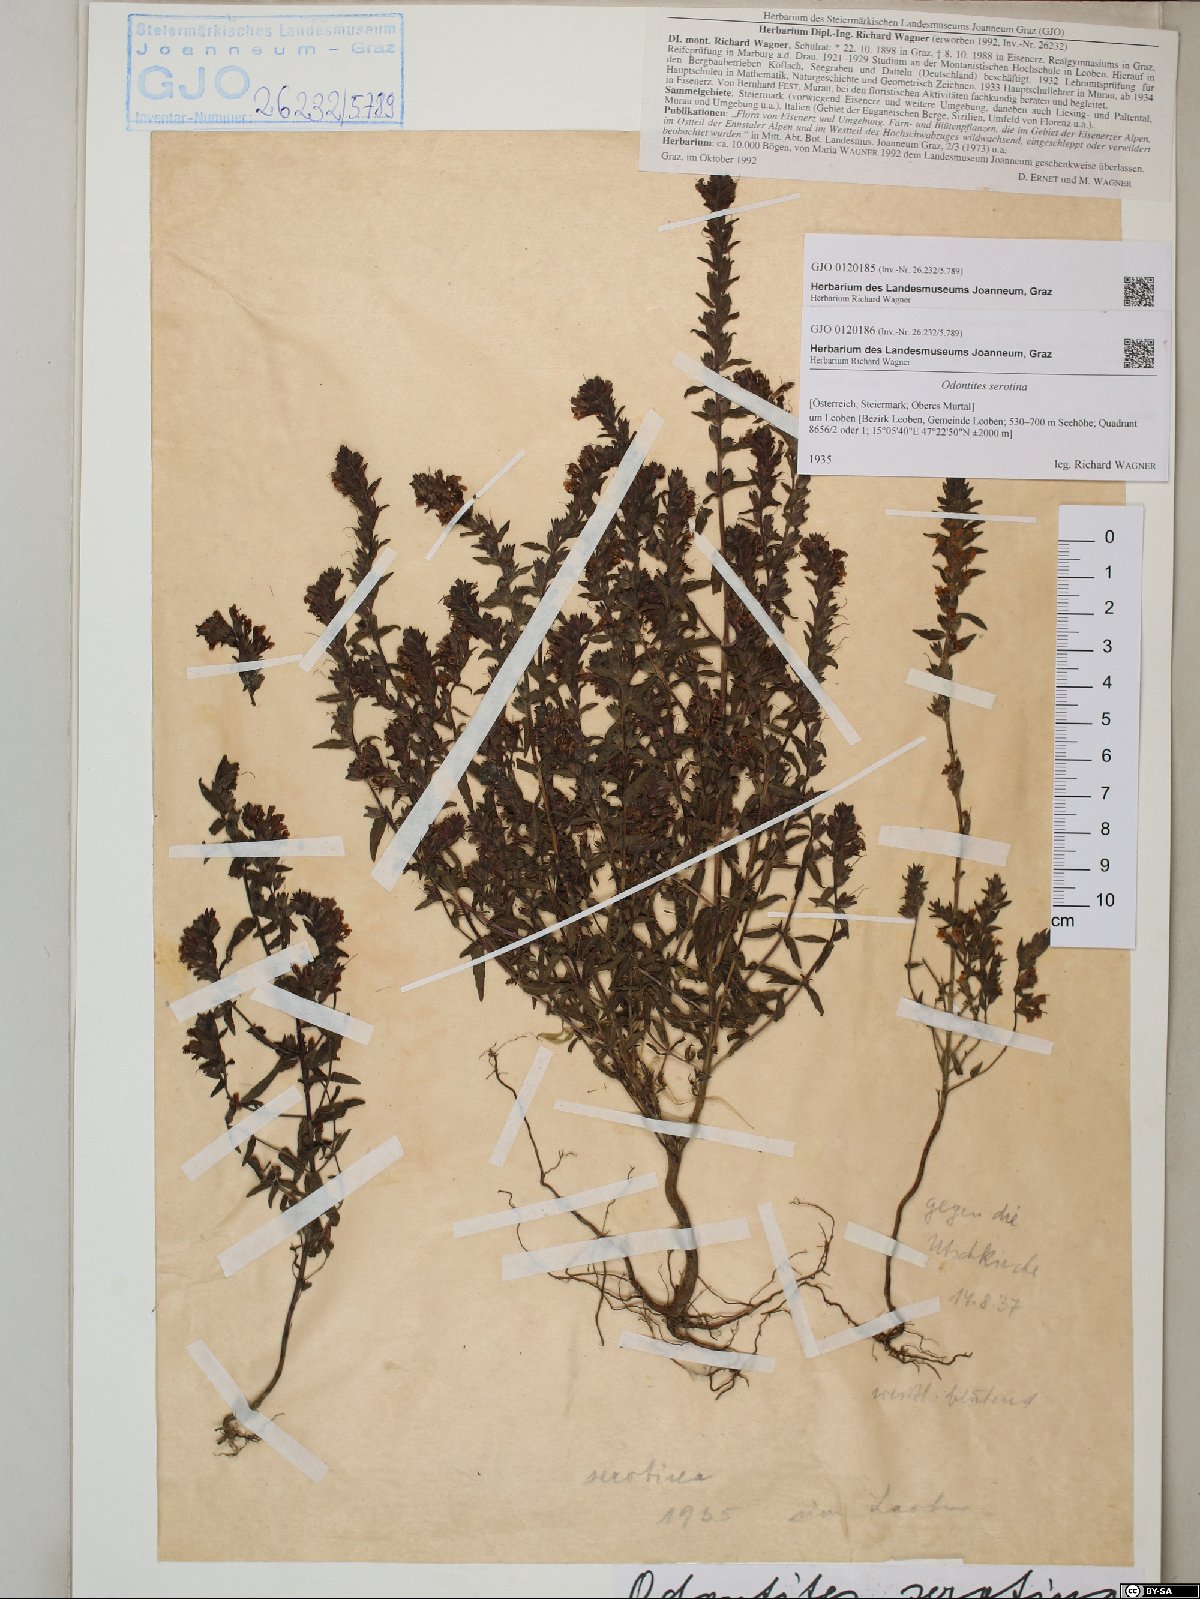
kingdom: Plantae
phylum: Tracheophyta
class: Magnoliopsida
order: Lamiales
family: Orobanchaceae
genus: Odontites
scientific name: Odontites vulgaris
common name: Broomrape
